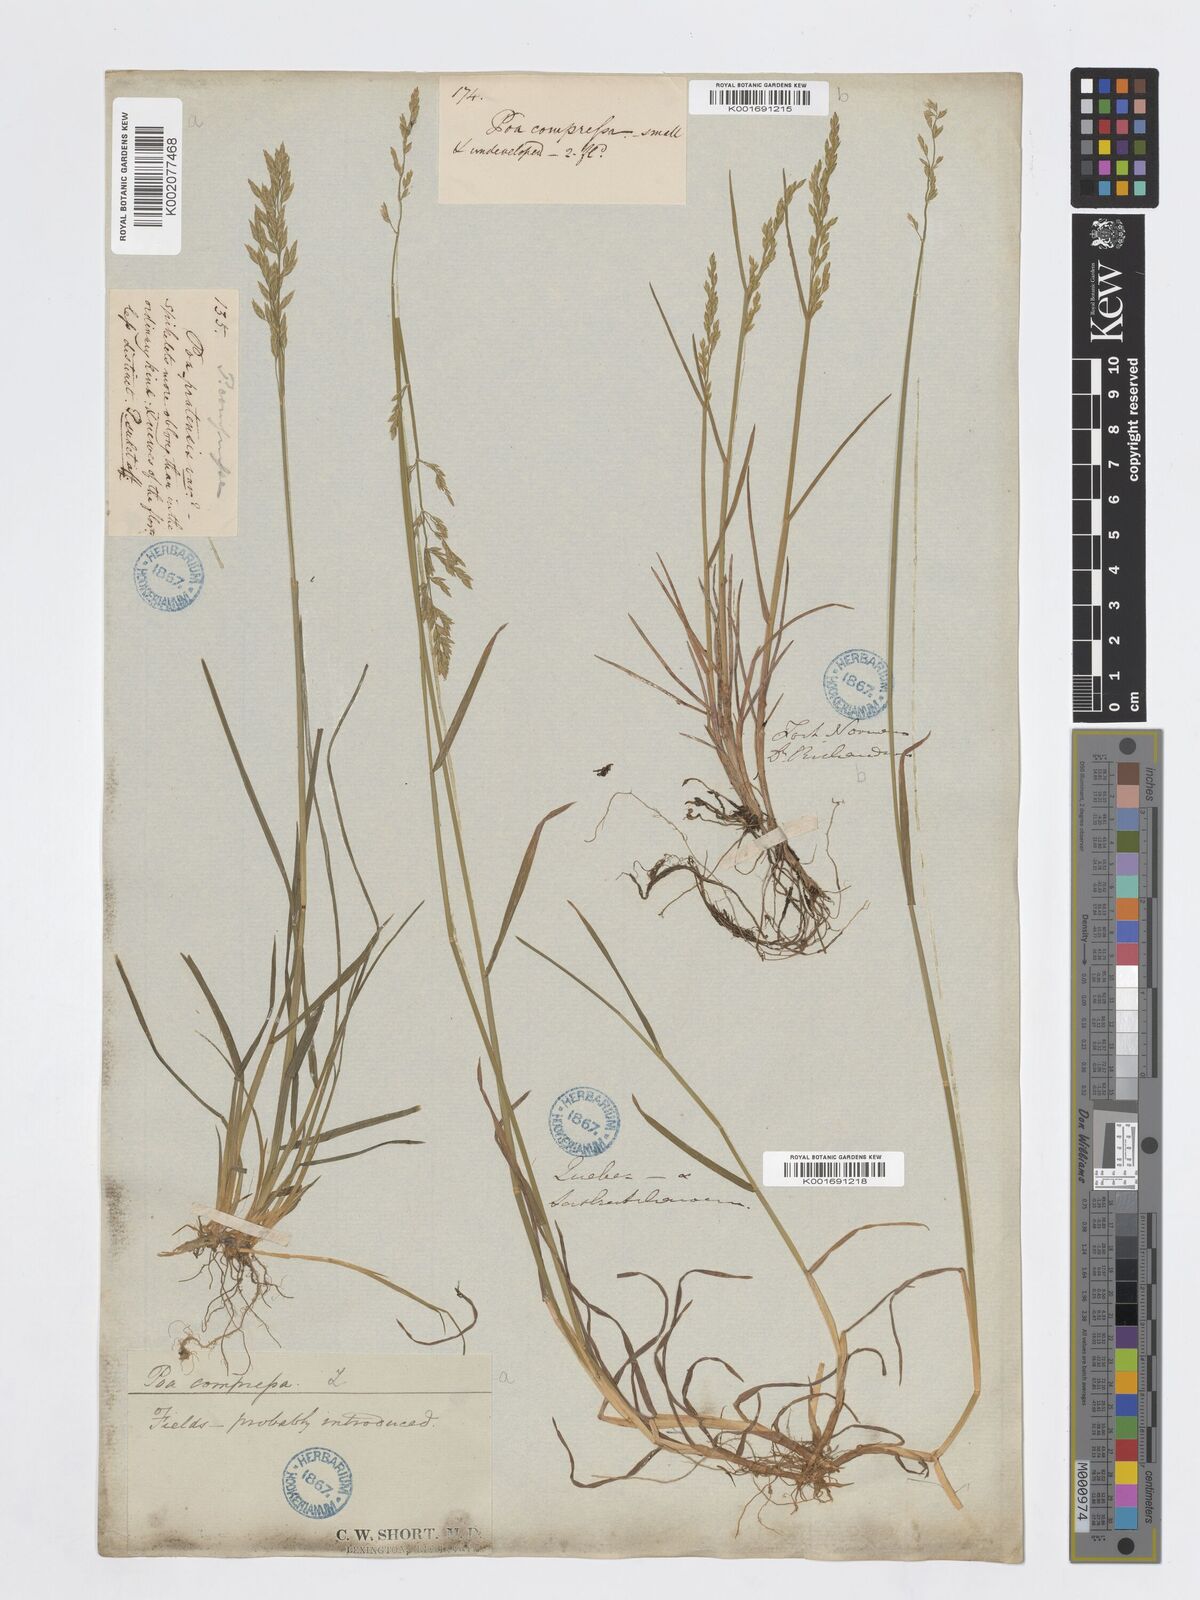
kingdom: Plantae
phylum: Tracheophyta
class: Liliopsida
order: Poales
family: Poaceae
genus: Poa
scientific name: Poa compressa
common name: Canada bluegrass
